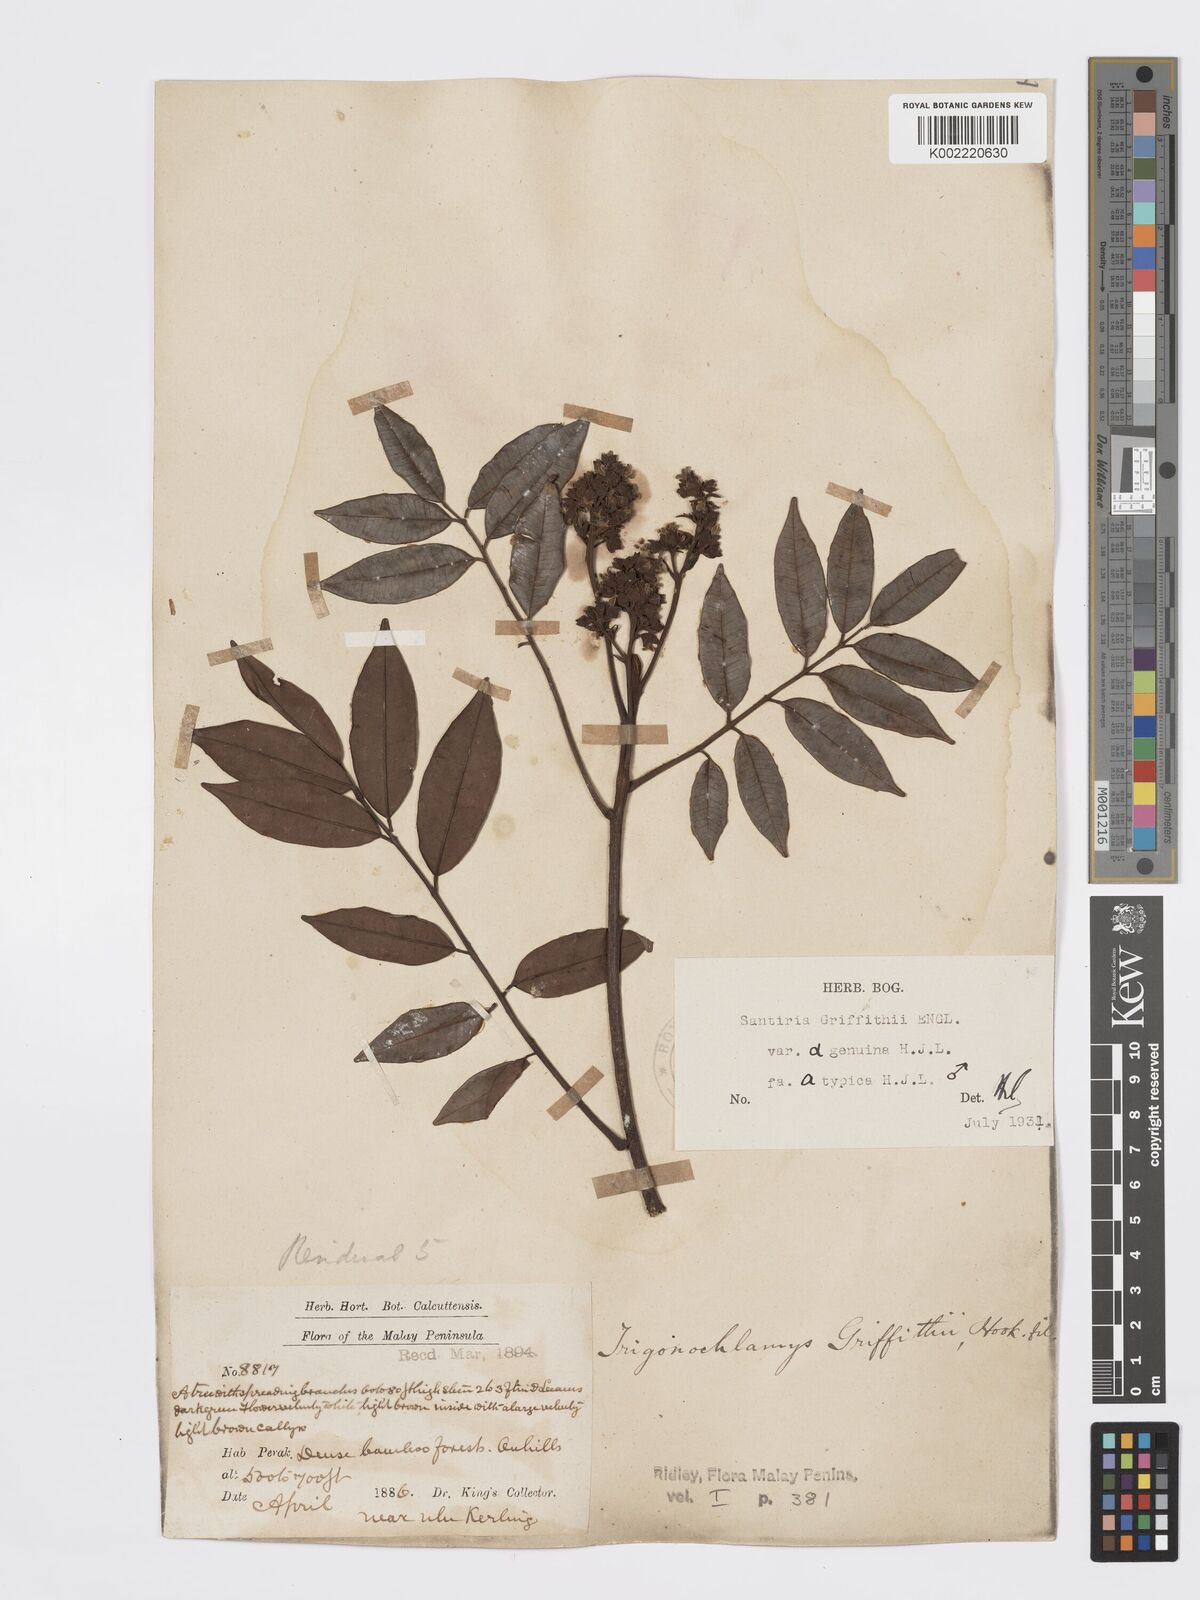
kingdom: Plantae
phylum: Tracheophyta
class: Magnoliopsida
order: Sapindales
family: Burseraceae
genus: Santiria
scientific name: Santiria griffithii
